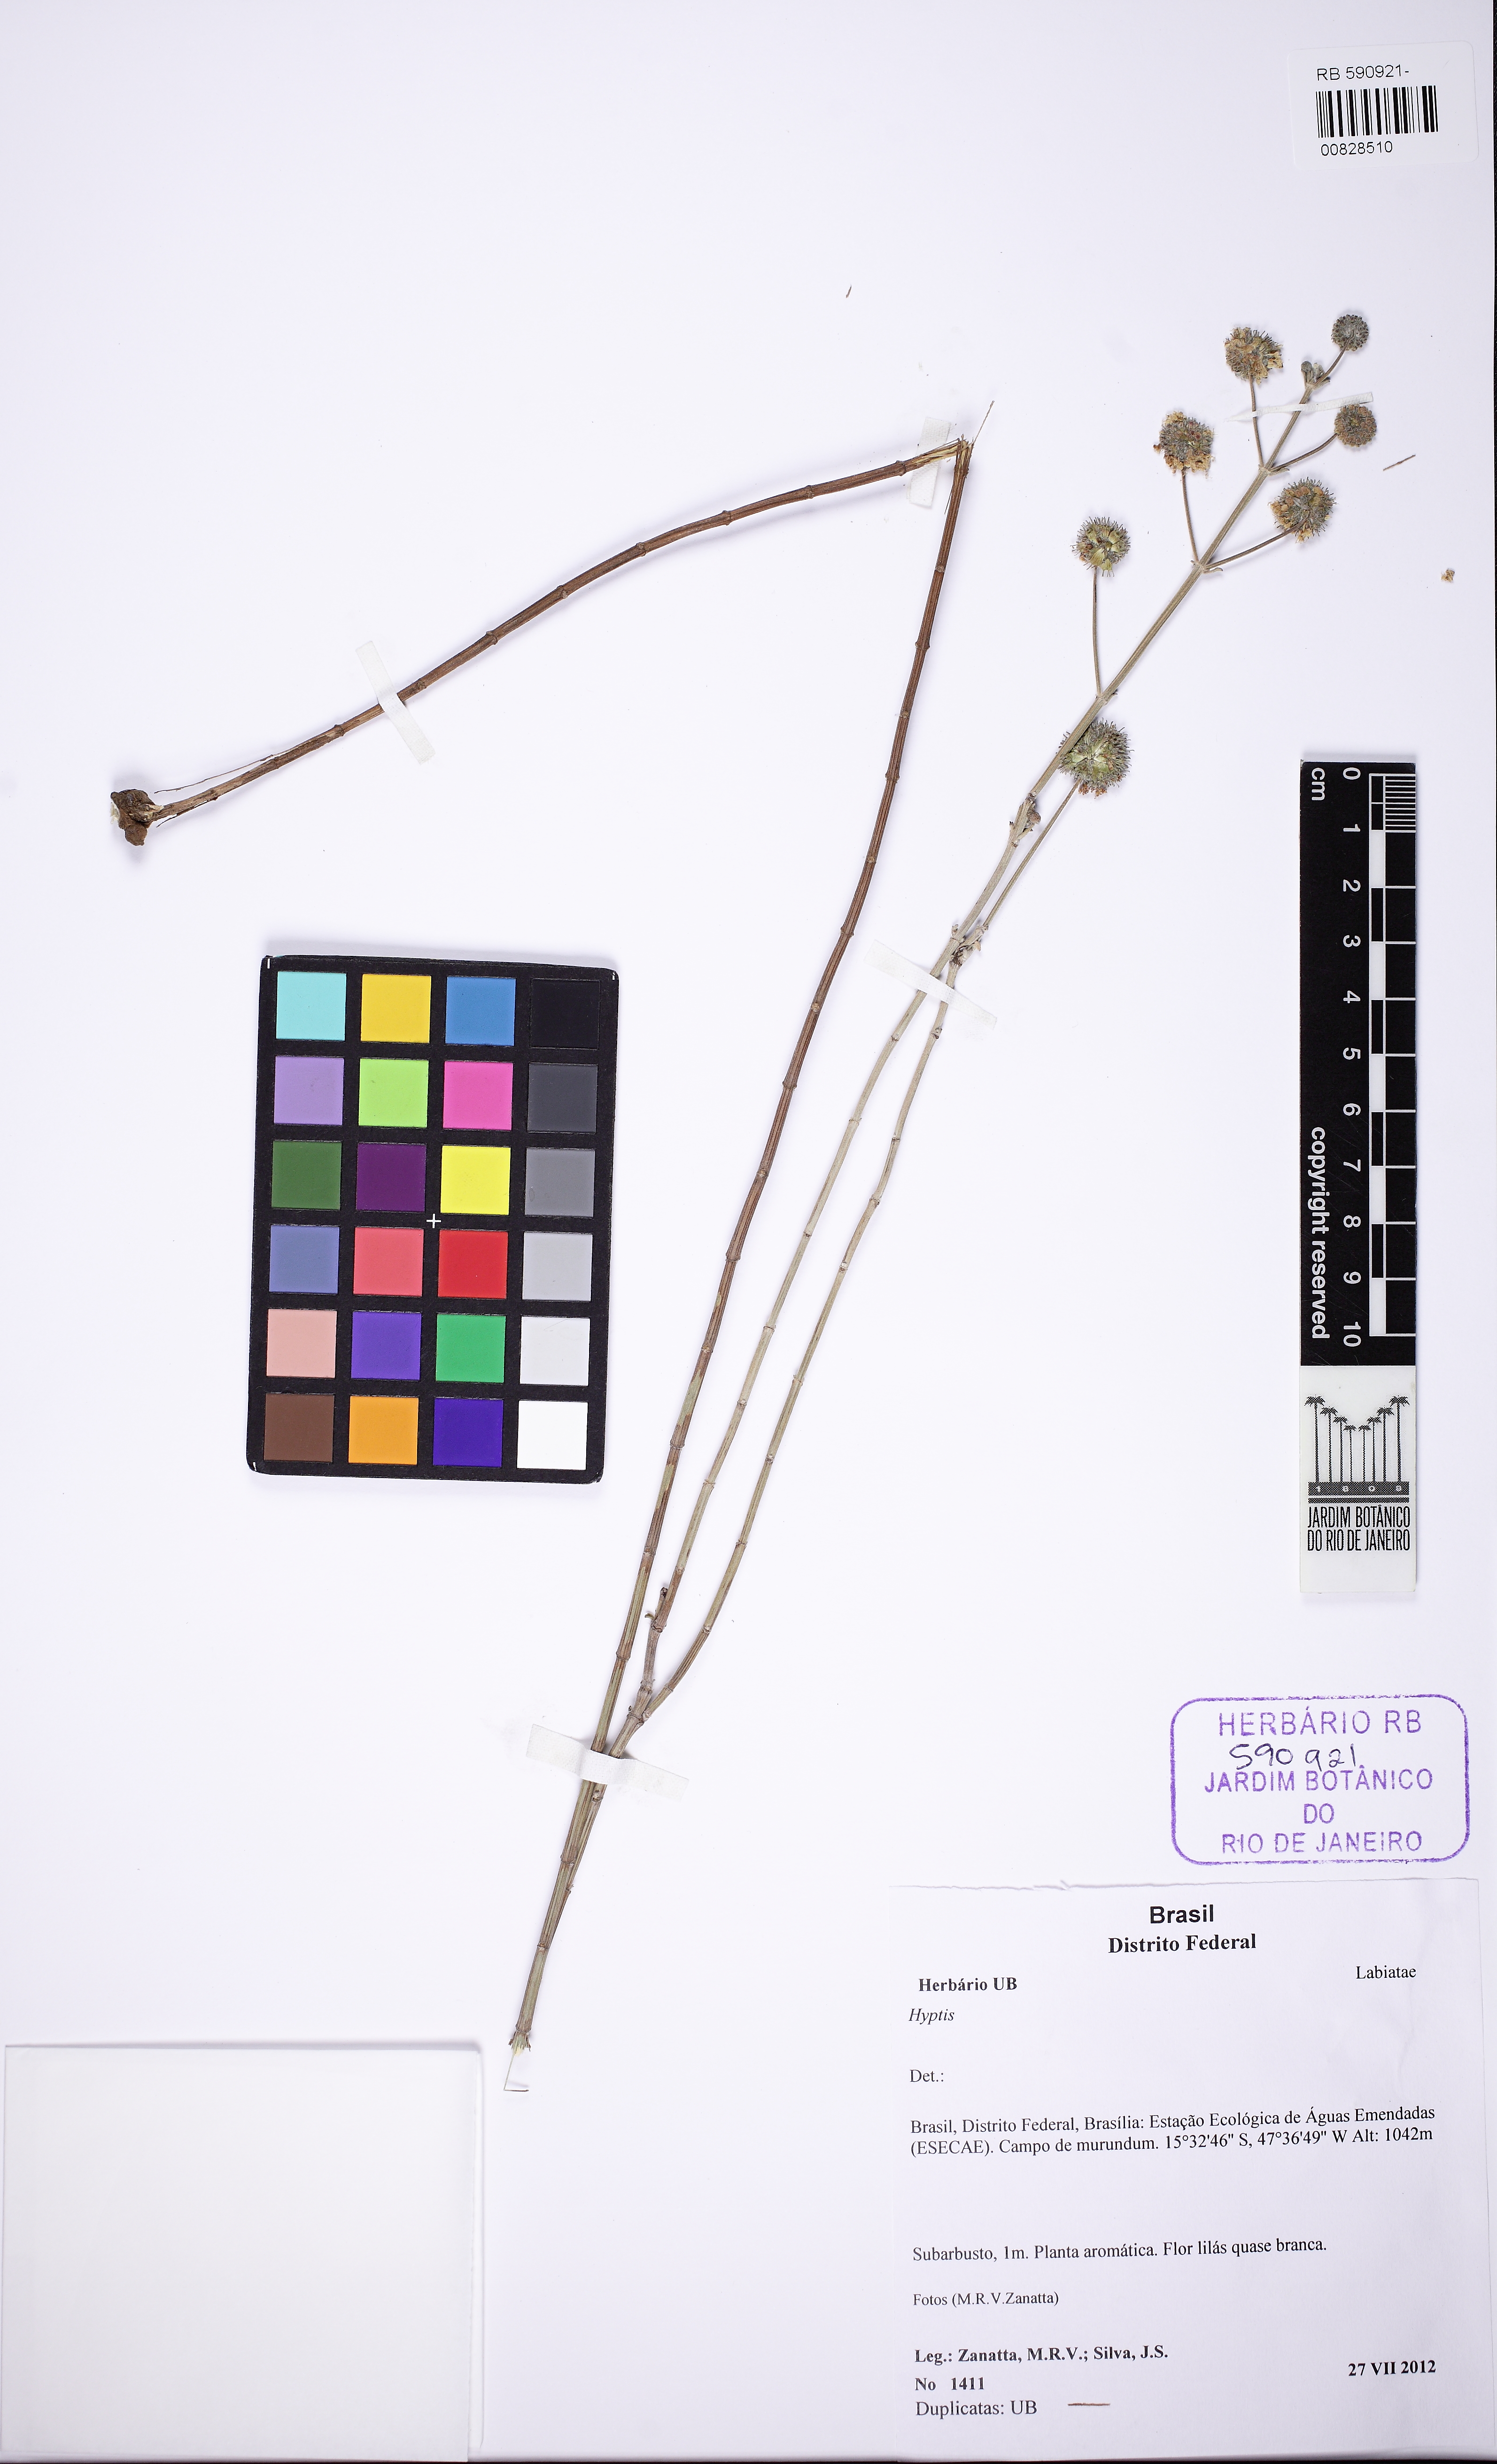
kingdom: Plantae
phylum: Tracheophyta
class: Magnoliopsida
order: Lamiales
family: Lamiaceae
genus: Cyanocephalus
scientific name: Cyanocephalus cuneatus
